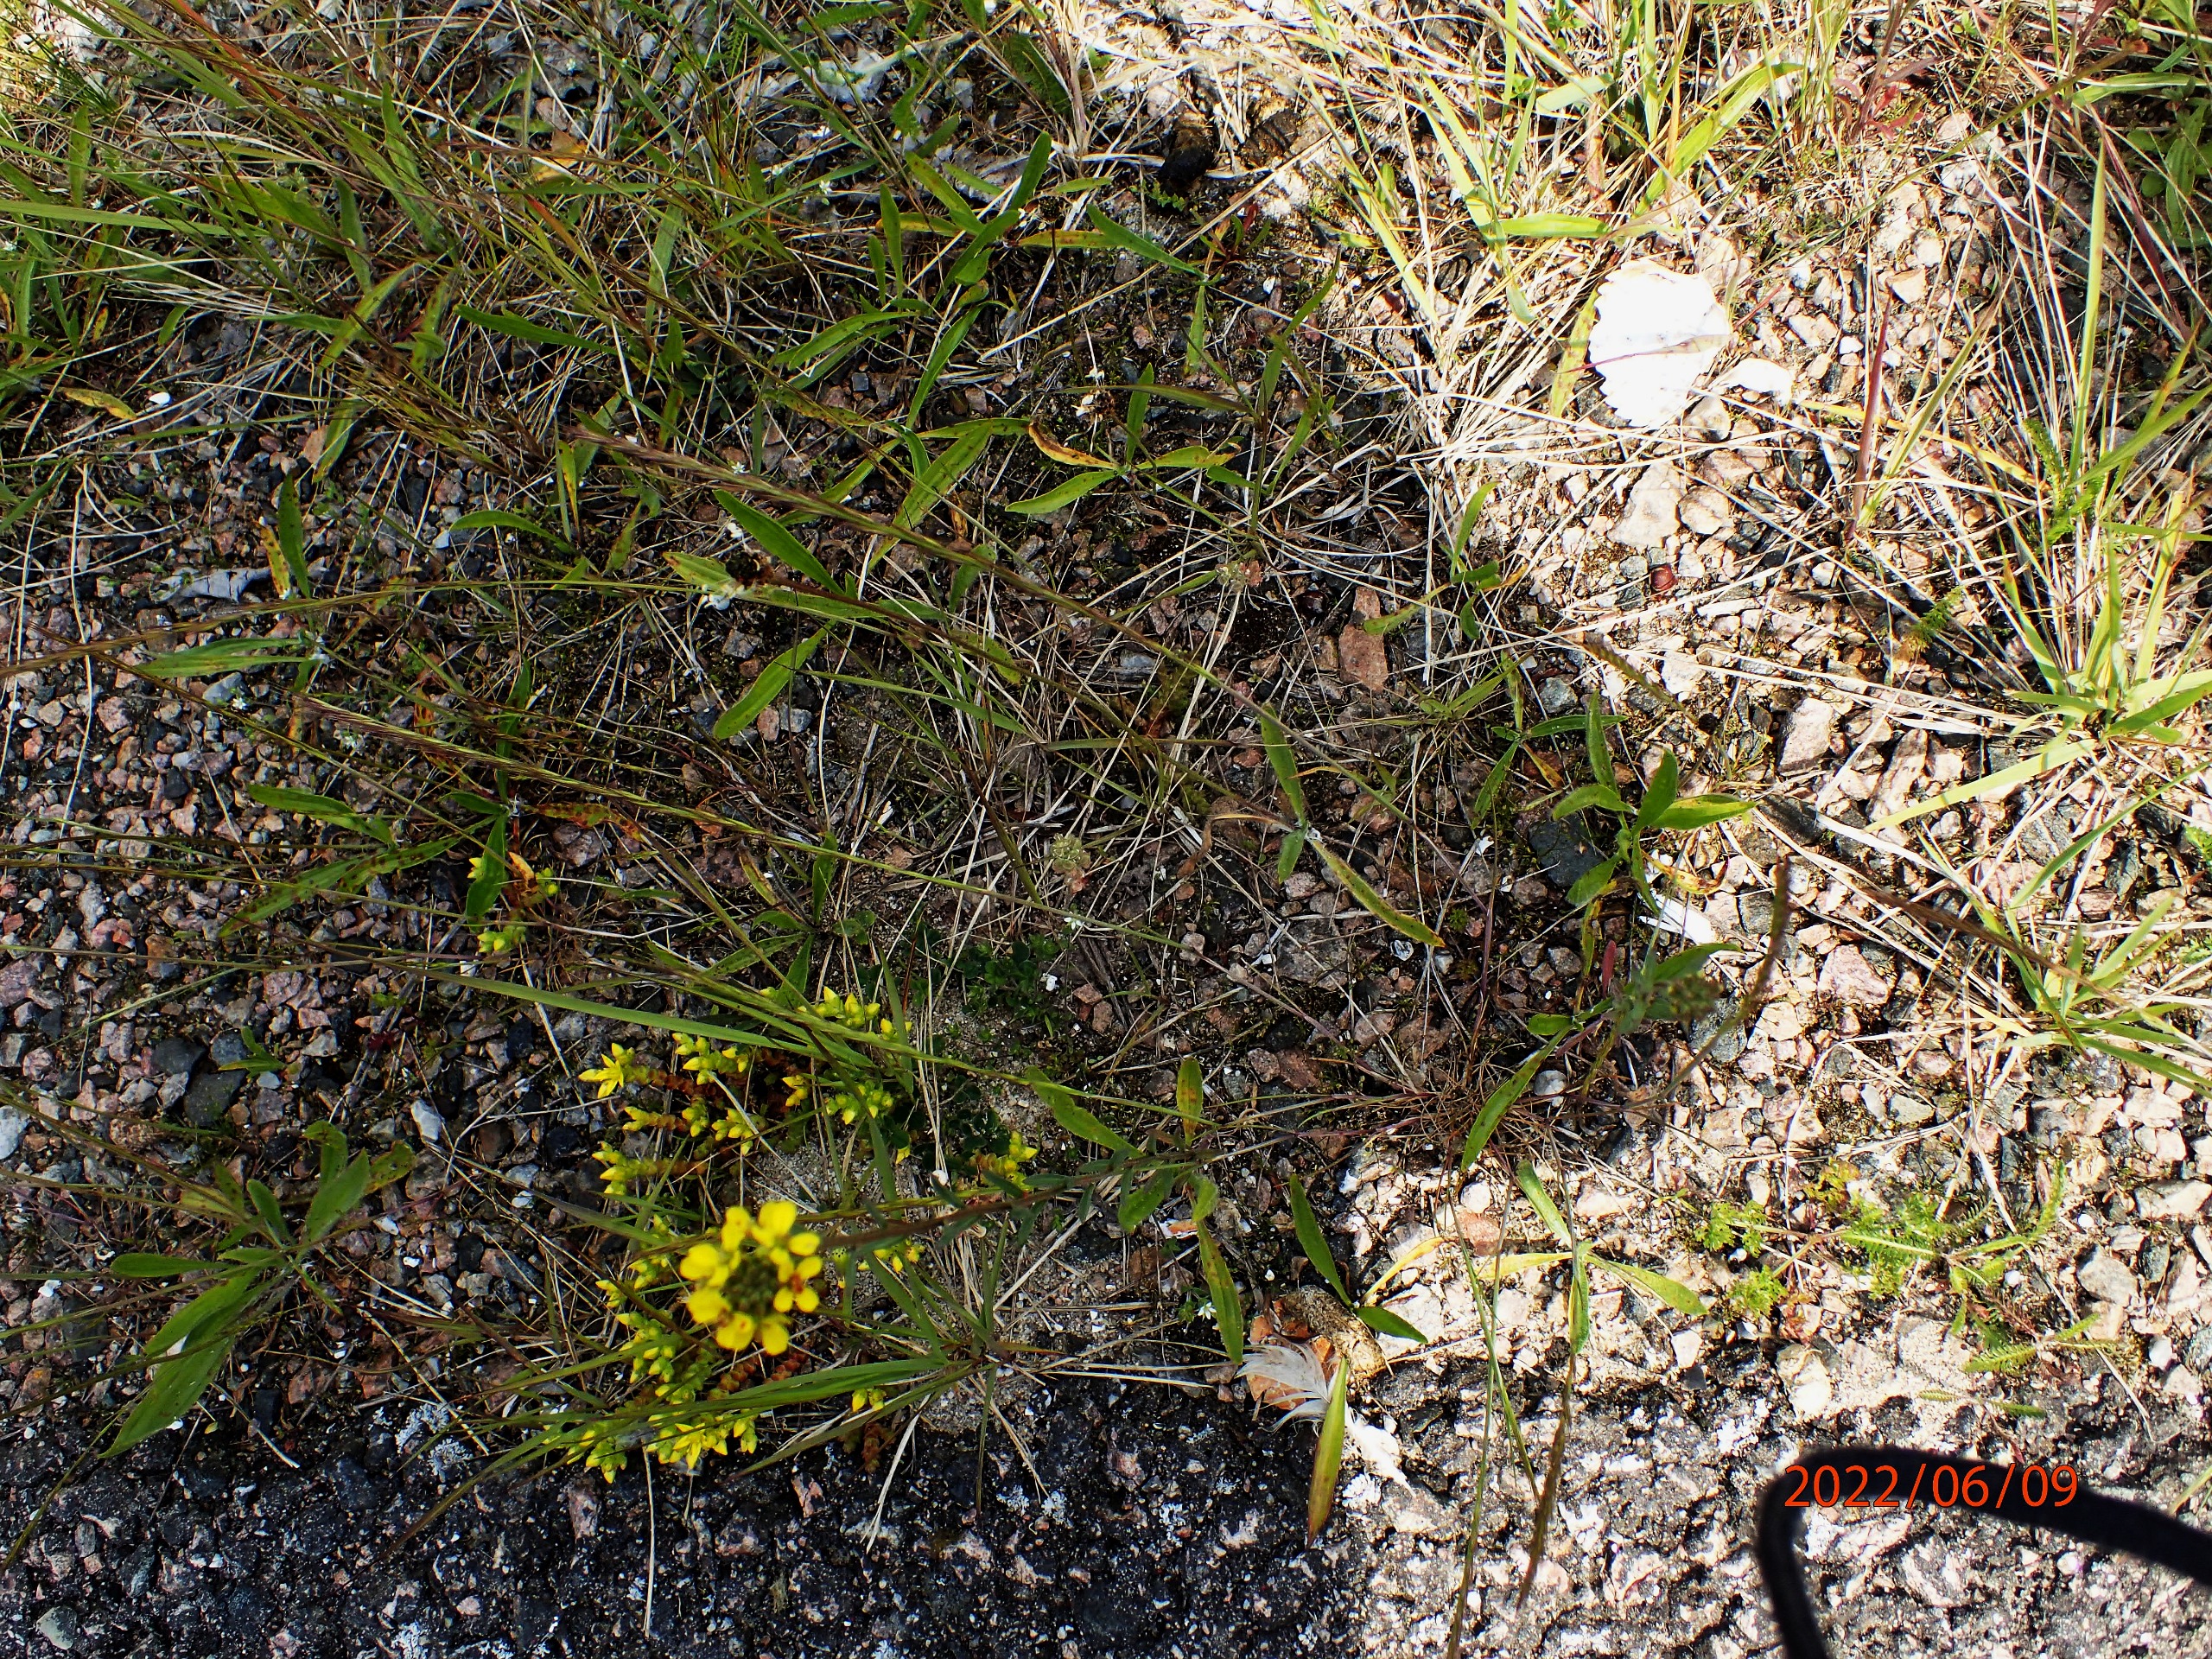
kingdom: Plantae
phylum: Tracheophyta
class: Magnoliopsida
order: Brassicales
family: Brassicaceae
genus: Erysimum
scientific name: Erysimum marschallianum
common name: Hård hjørneklap
